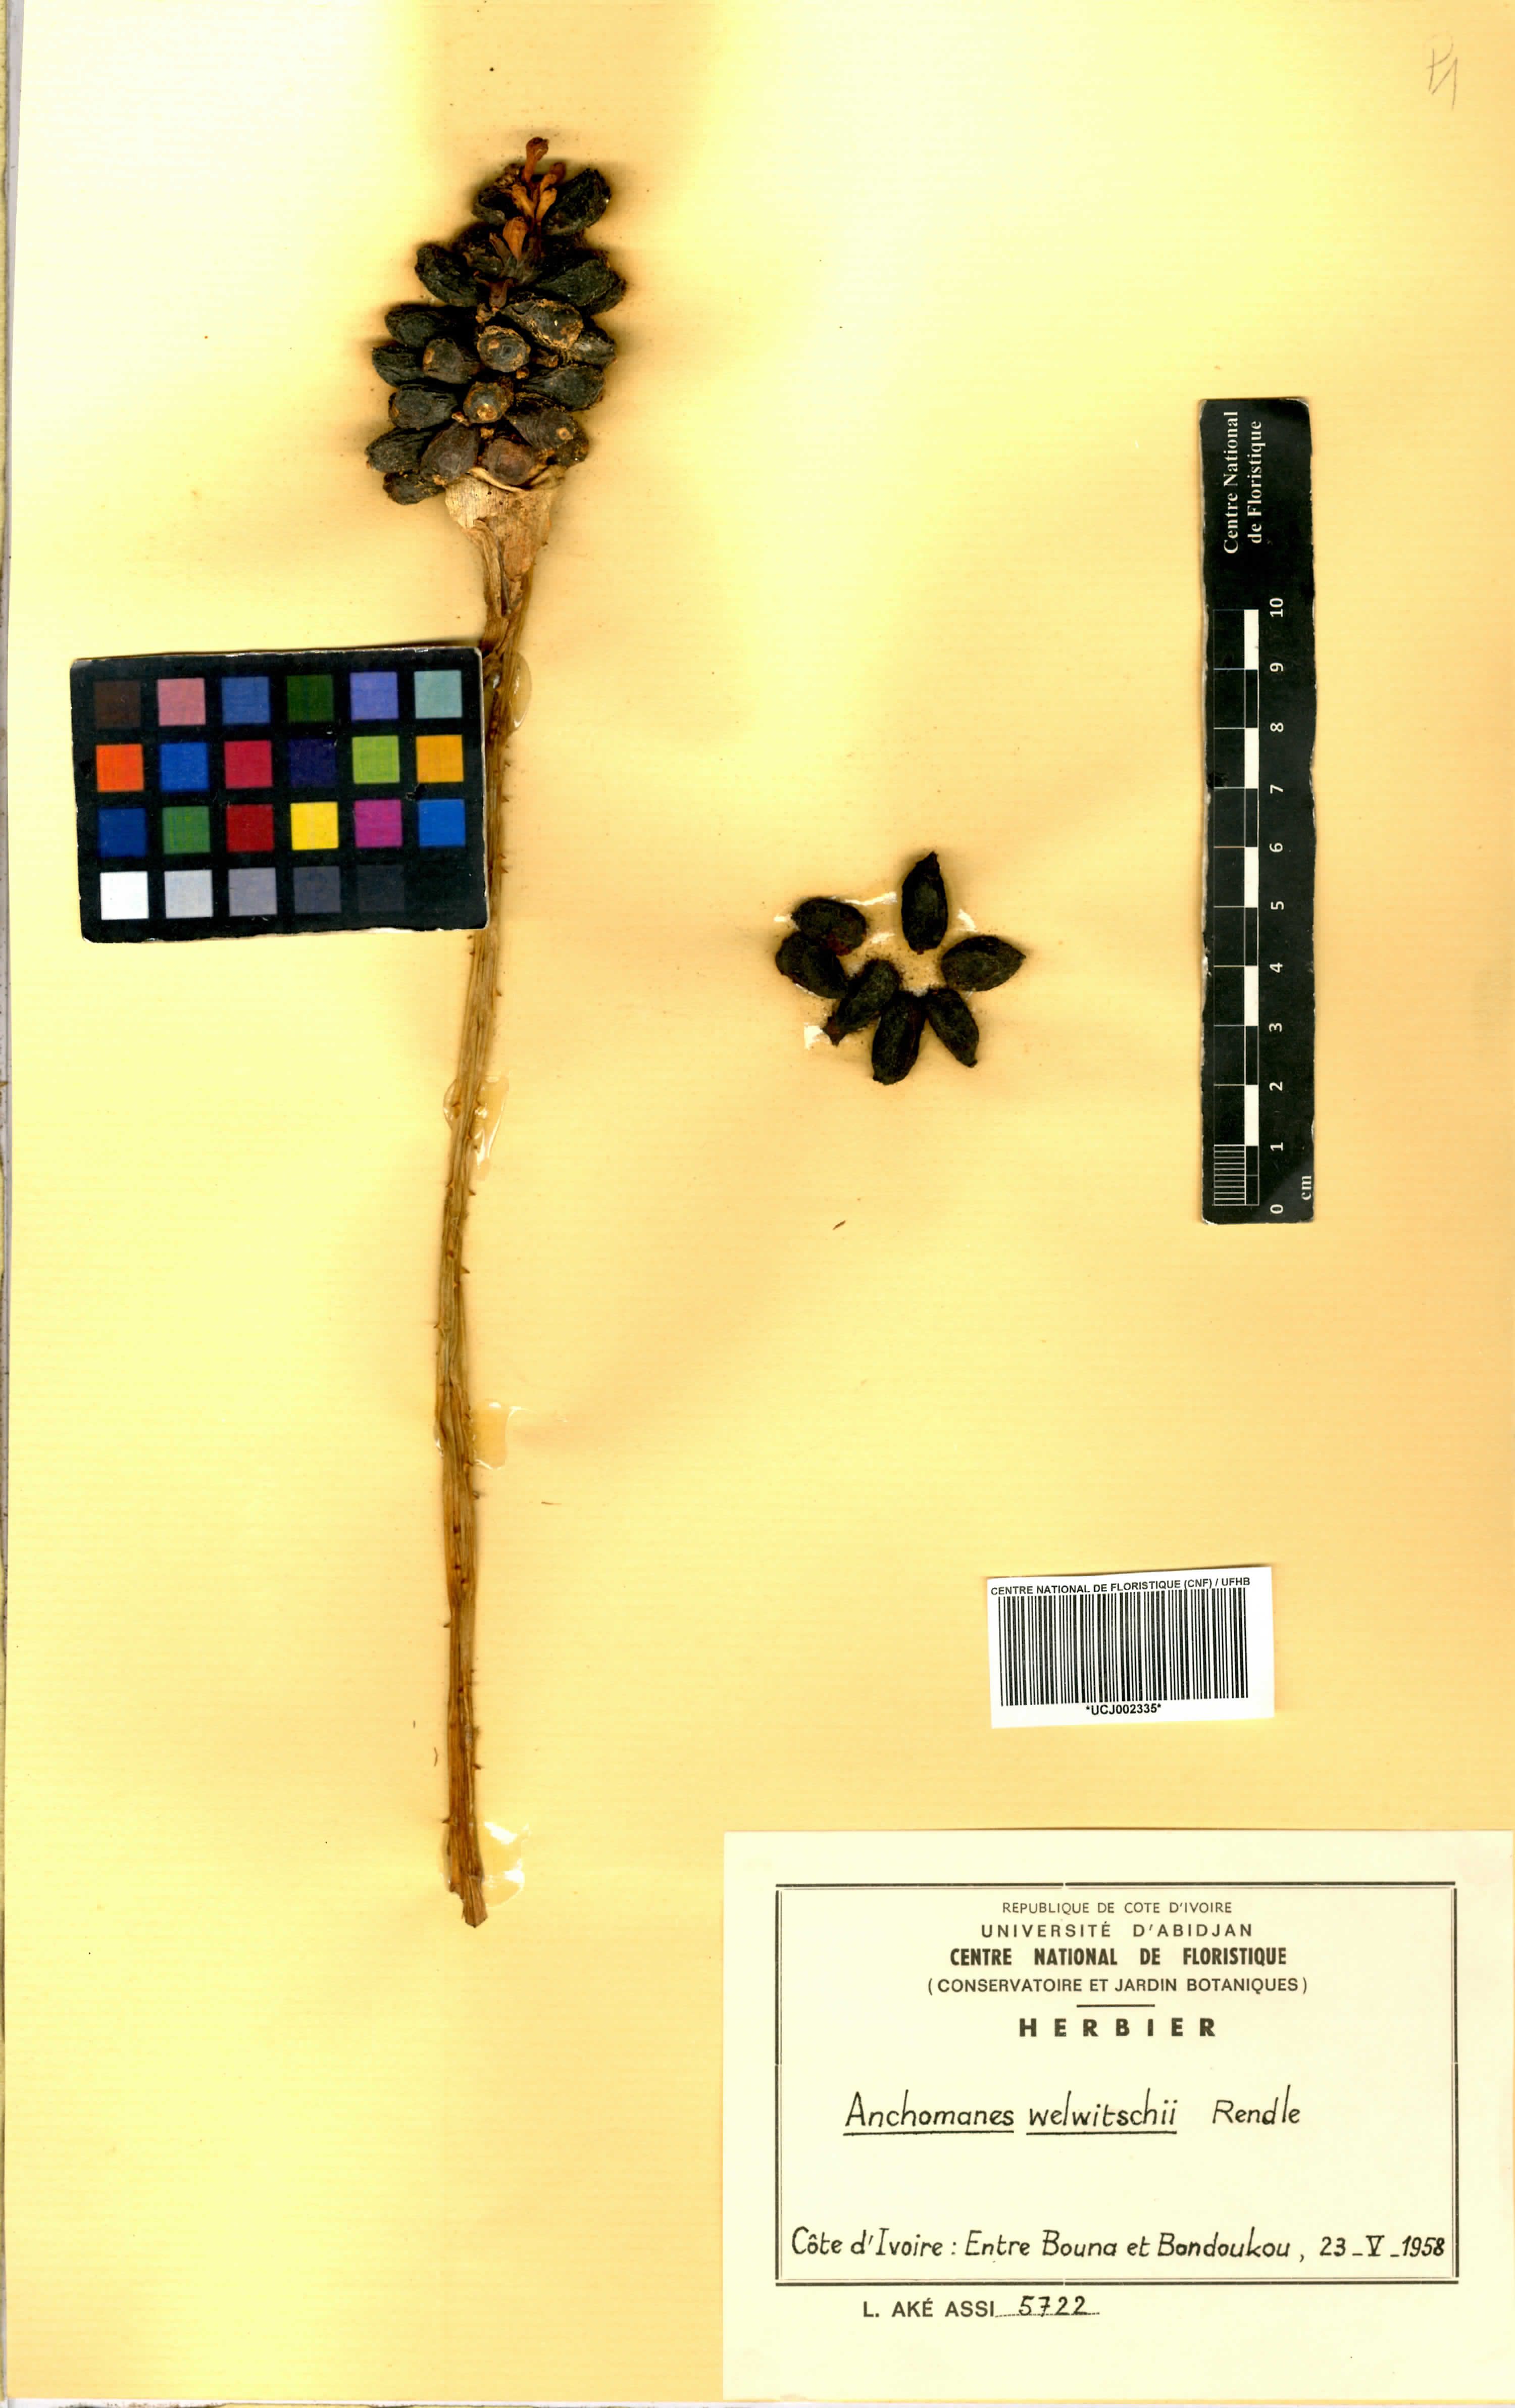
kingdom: Plantae
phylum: Tracheophyta
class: Liliopsida
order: Alismatales
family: Araceae
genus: Anchomanes
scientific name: Anchomanes difformis
